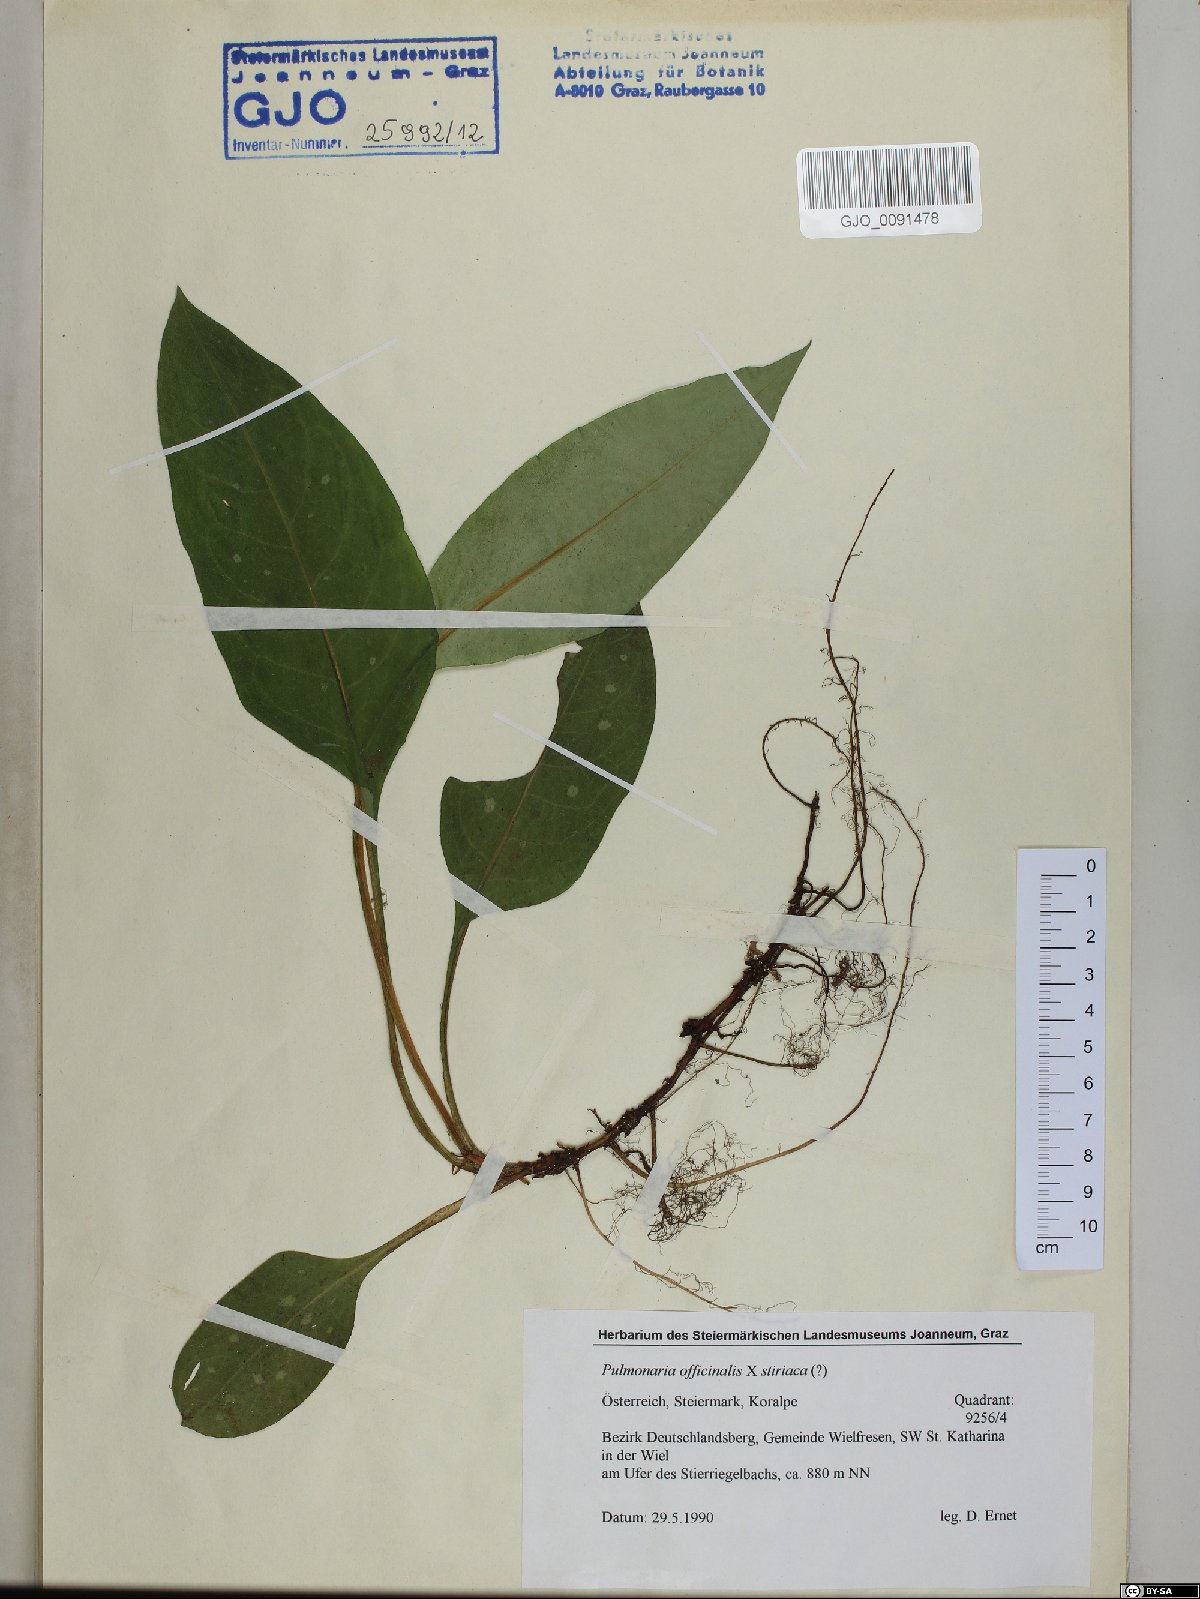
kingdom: Plantae
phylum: Tracheophyta
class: Magnoliopsida
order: Boraginales
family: Boraginaceae
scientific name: Boraginaceae
